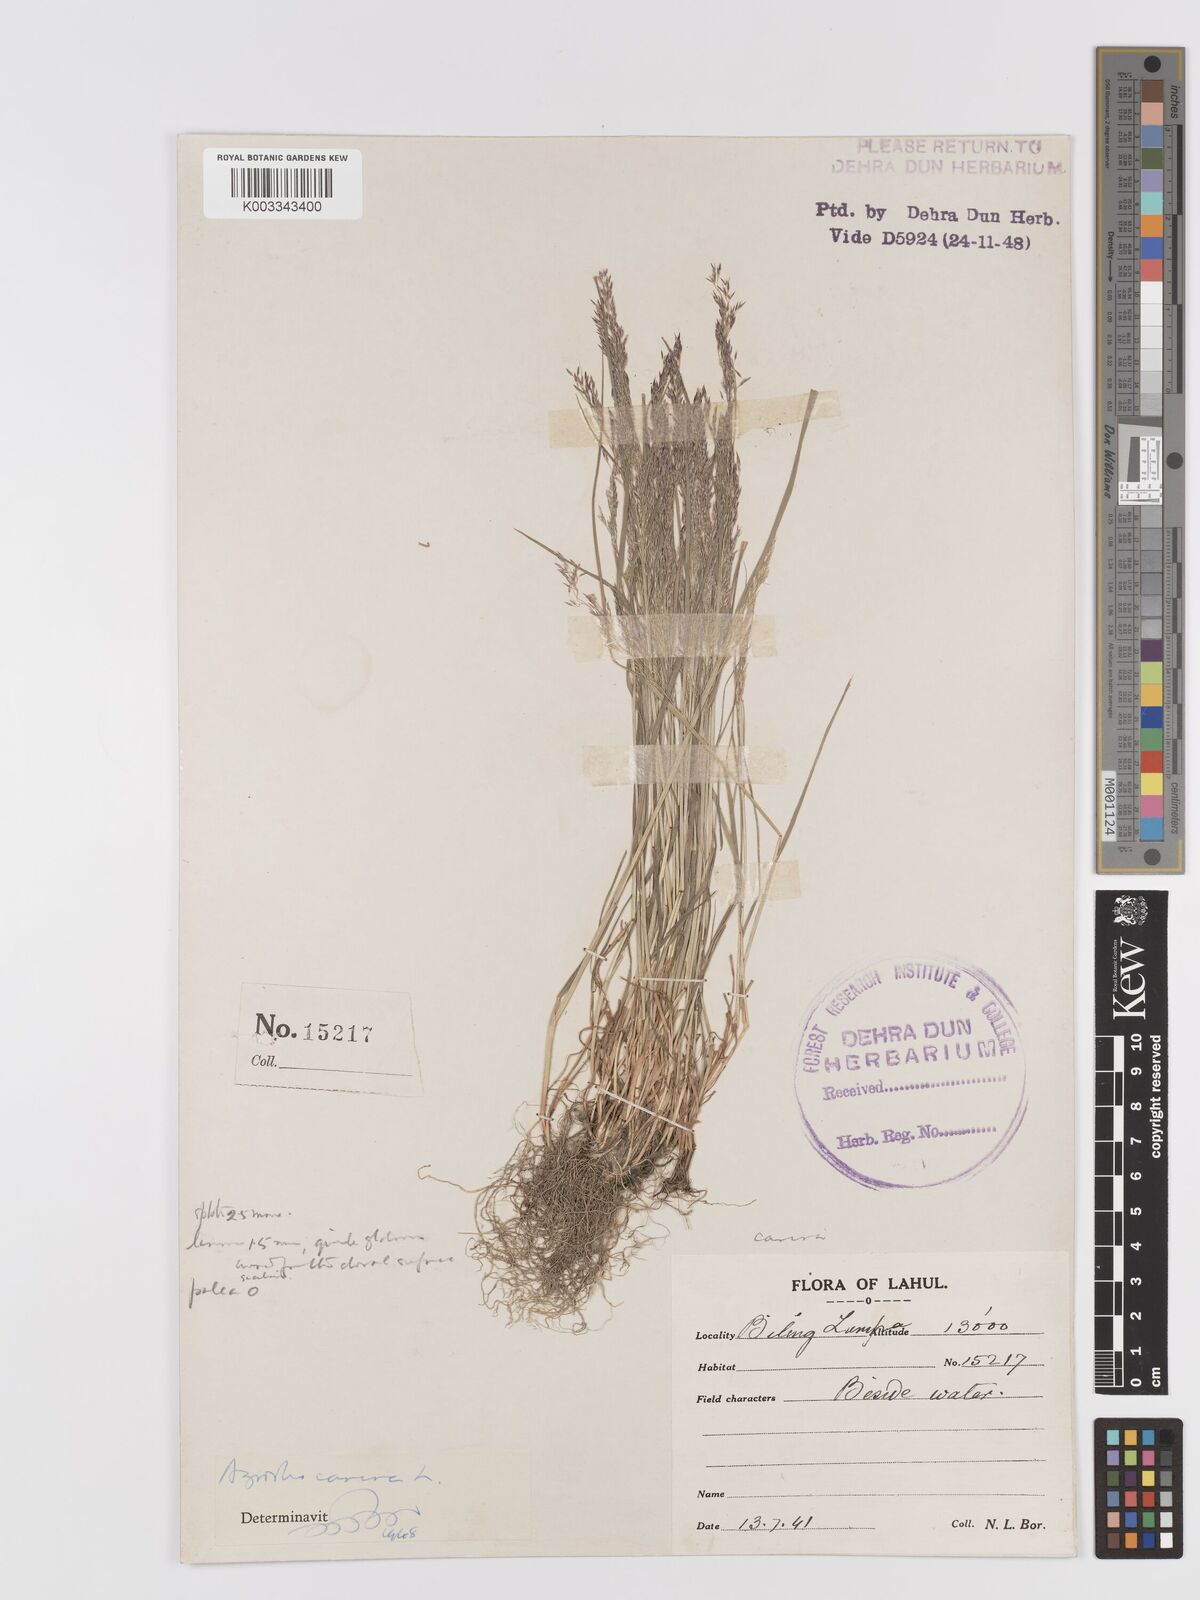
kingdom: Plantae
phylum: Tracheophyta
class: Liliopsida
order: Poales
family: Poaceae
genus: Agrostis
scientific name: Agrostis vinealis
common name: Brown bent
